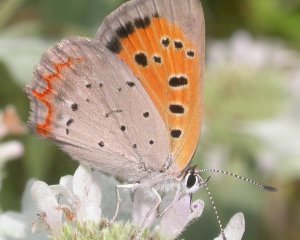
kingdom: Animalia
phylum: Arthropoda
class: Insecta
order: Lepidoptera
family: Lycaenidae
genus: Lycaena
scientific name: Lycaena phlaeas
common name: American Copper
